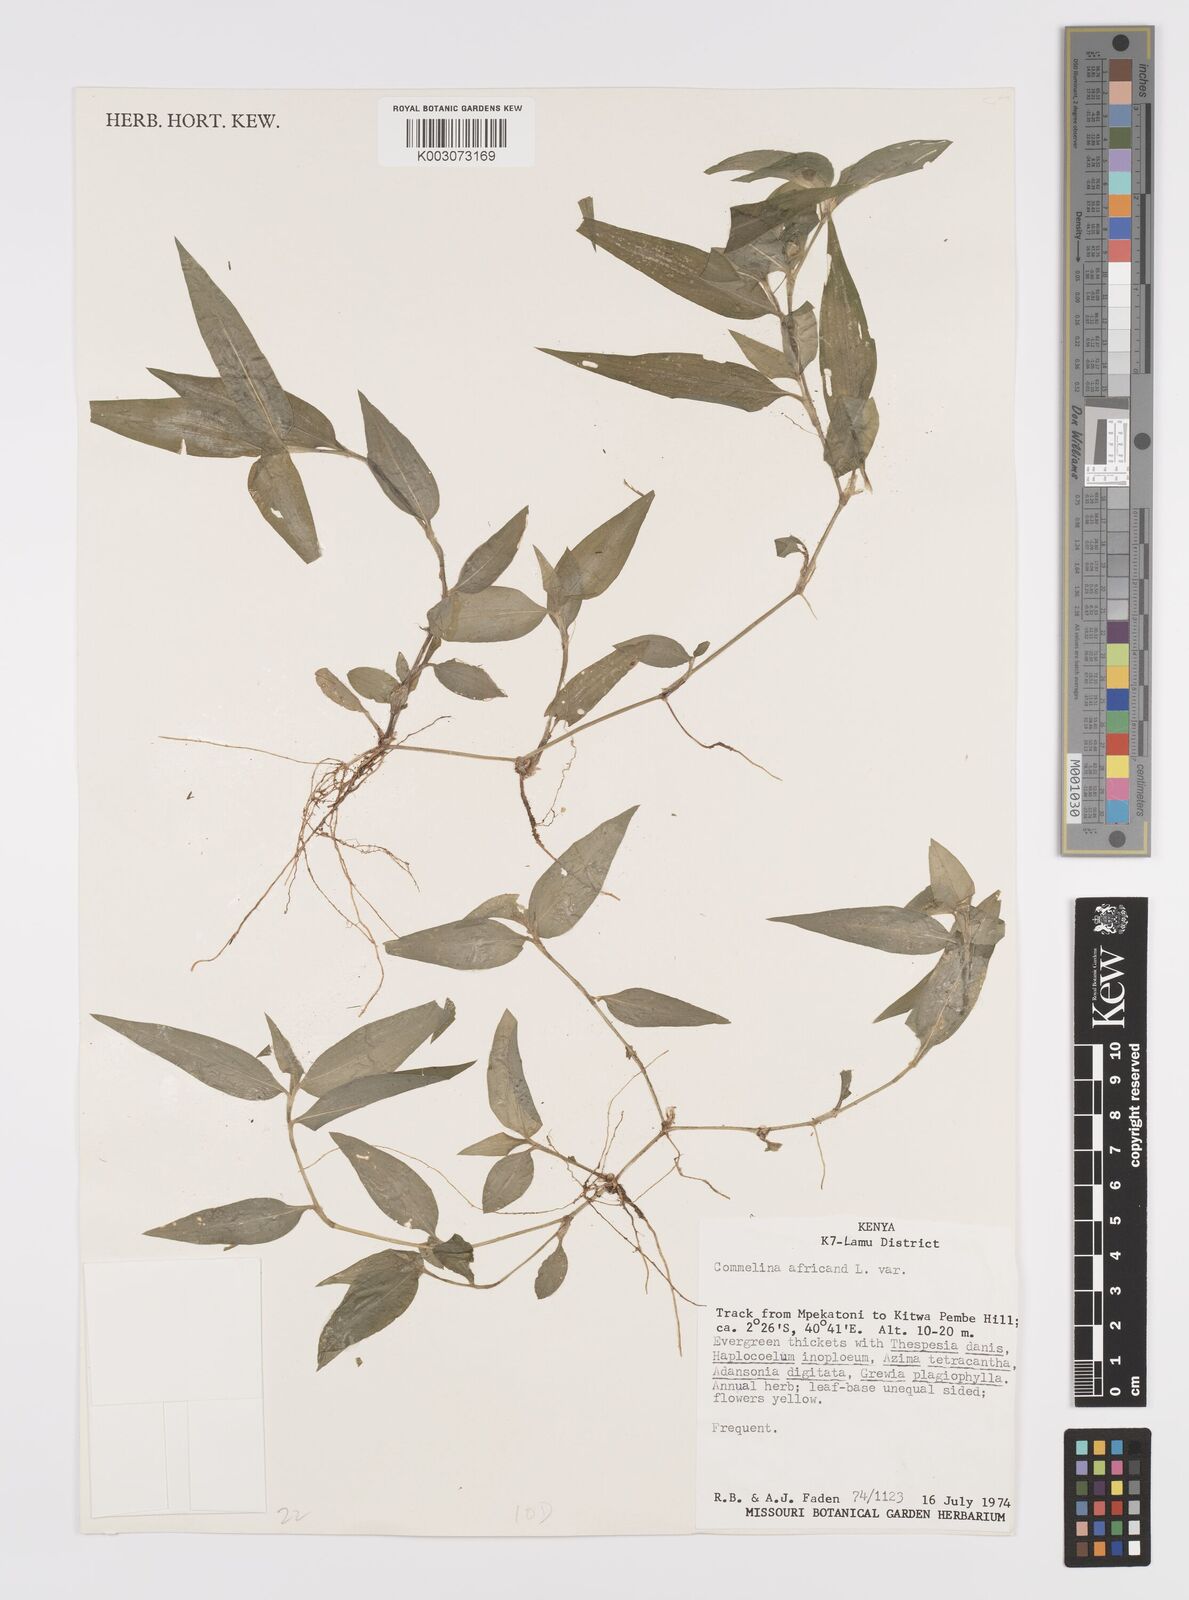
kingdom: Plantae
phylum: Tracheophyta
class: Liliopsida
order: Commelinales
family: Commelinaceae
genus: Commelina
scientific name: Commelina africana
